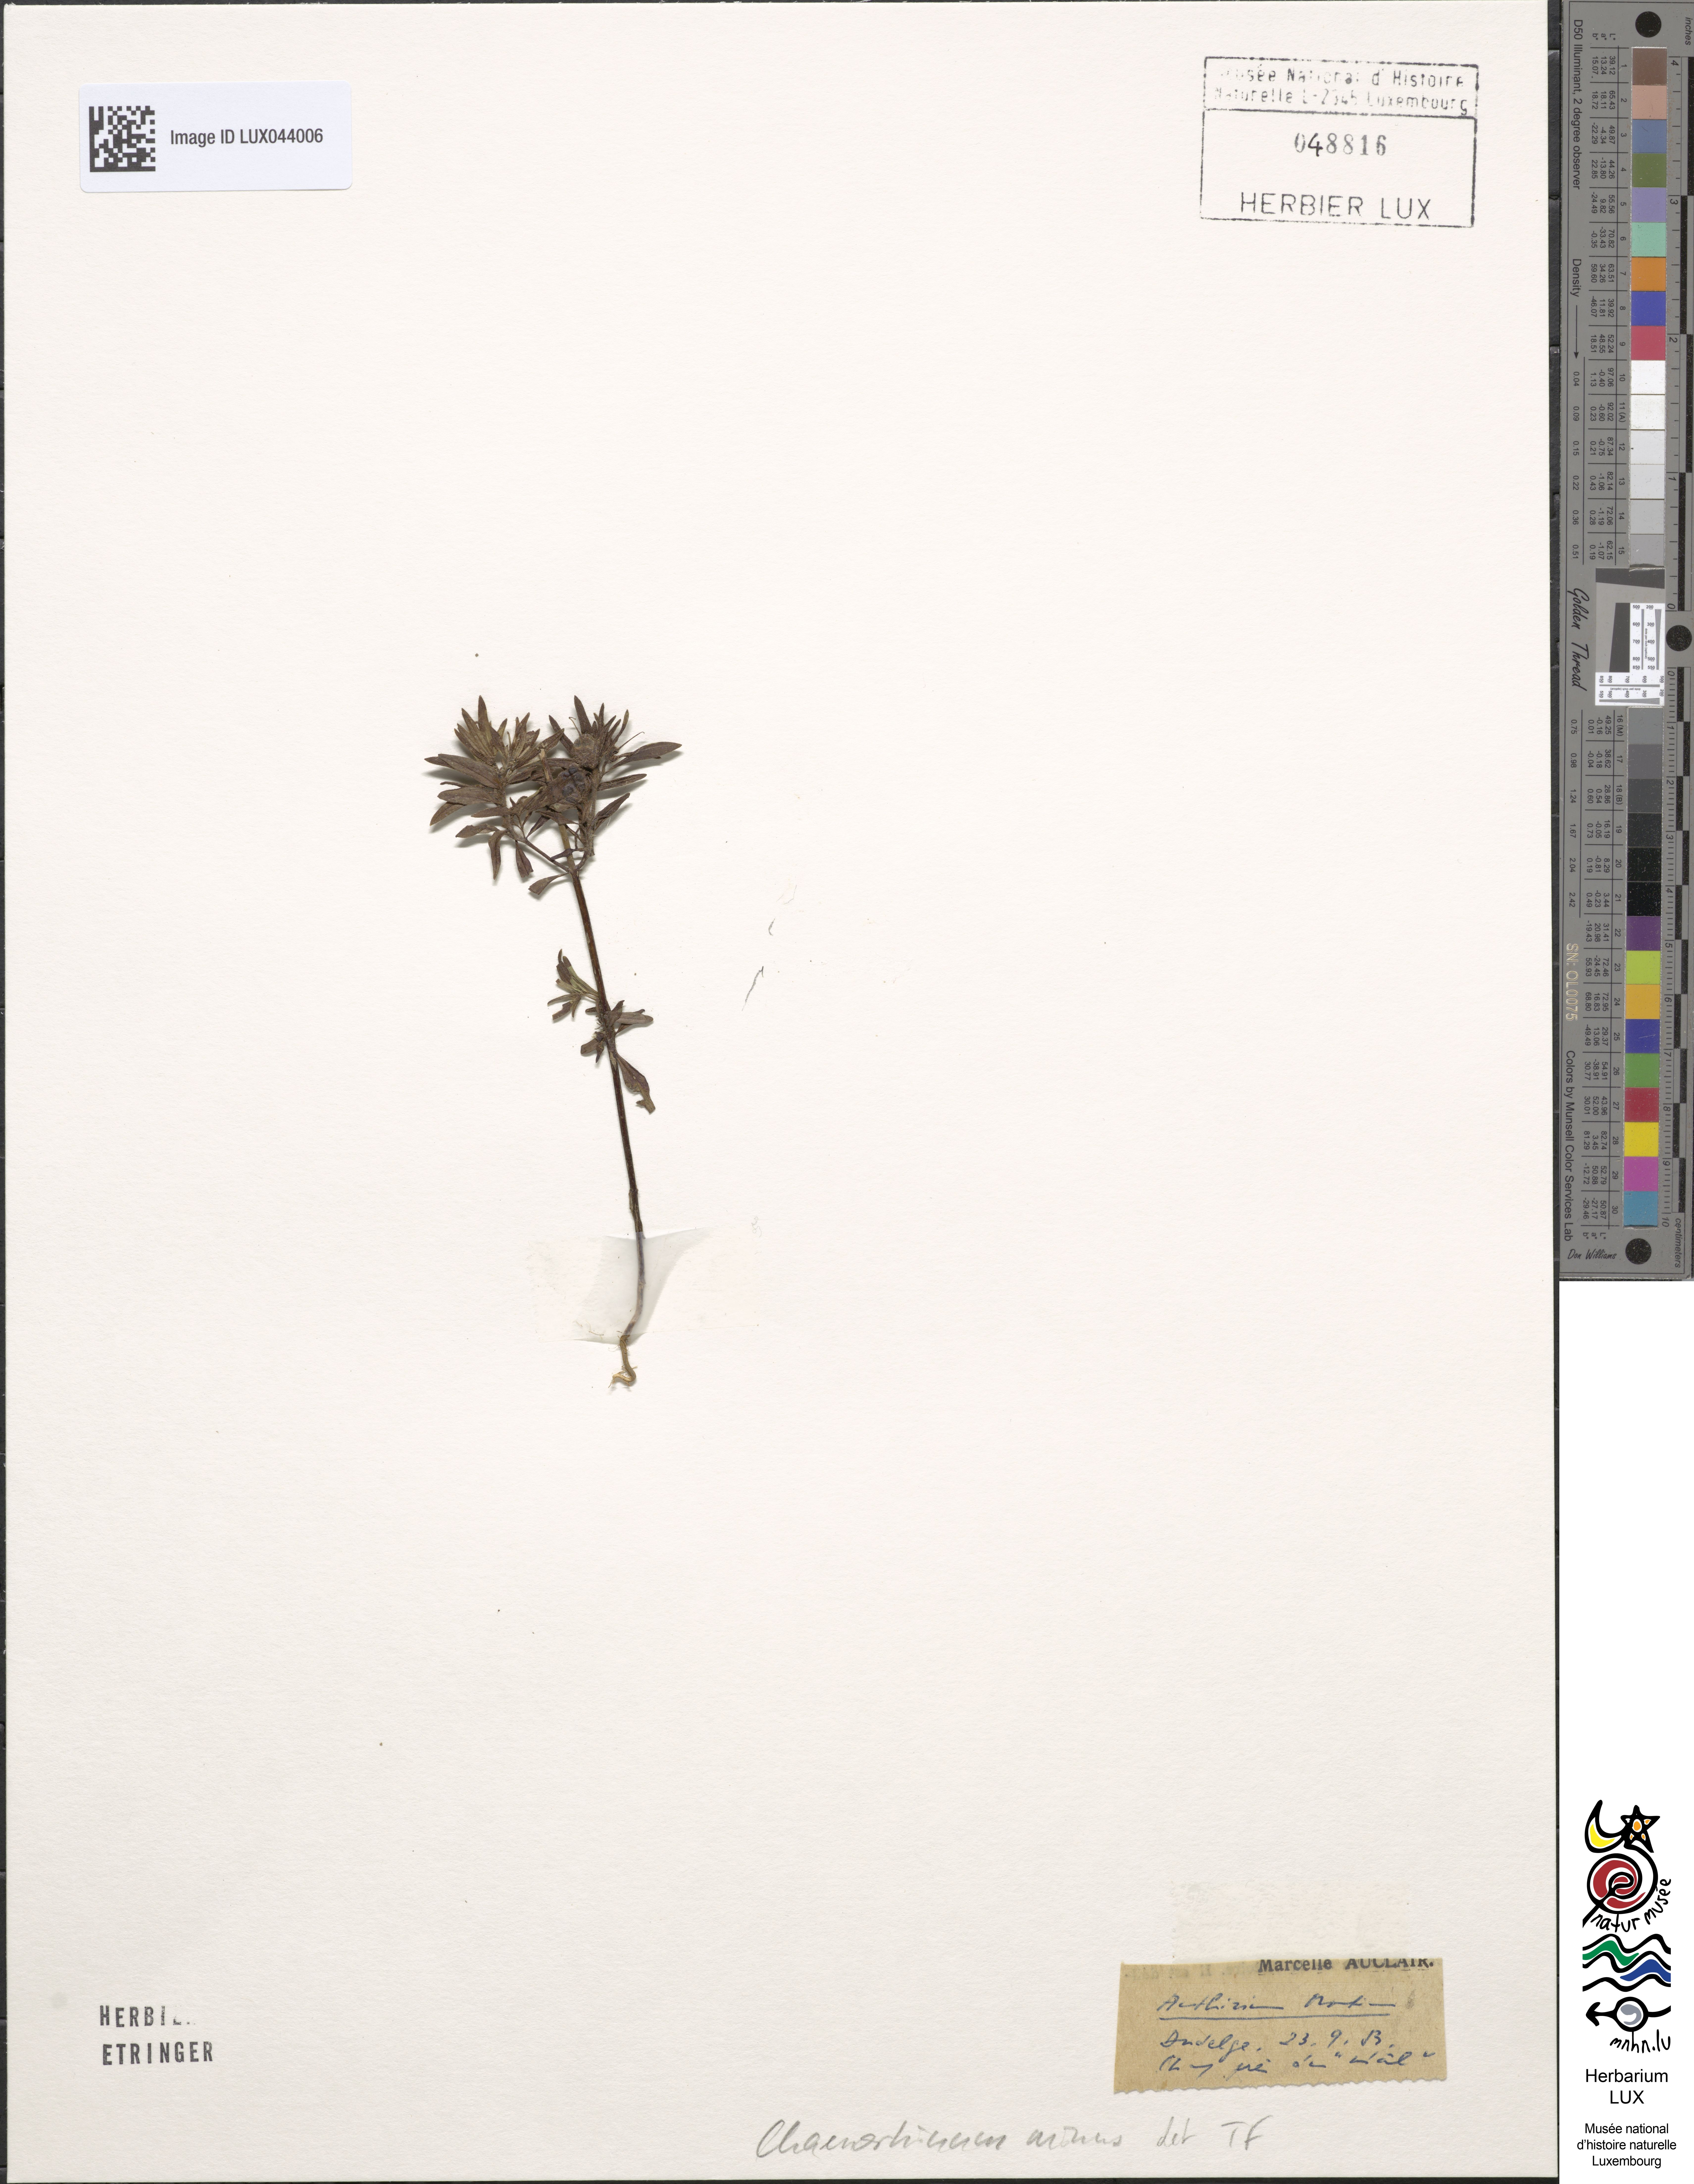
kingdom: Plantae
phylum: Tracheophyta
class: Magnoliopsida
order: Lamiales
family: Plantaginaceae
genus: Misopates
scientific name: Misopates orontium
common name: Weasel's-snout
